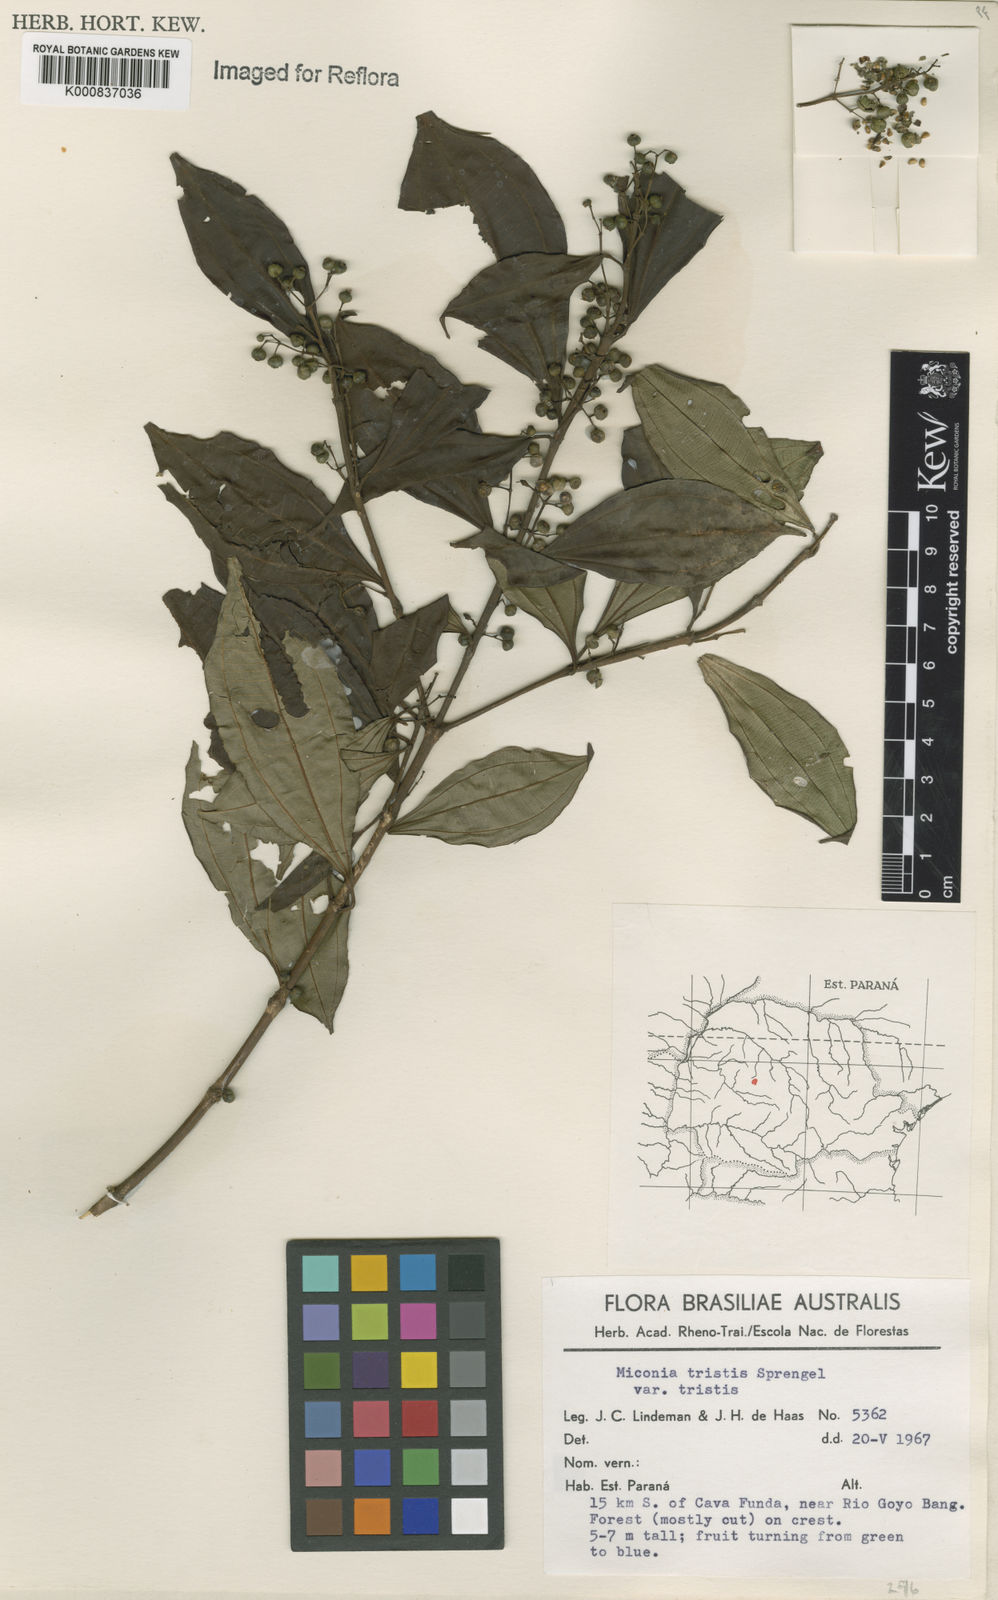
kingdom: Plantae
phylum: Tracheophyta
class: Magnoliopsida
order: Myrtales
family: Melastomataceae
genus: Miconia
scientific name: Miconia
